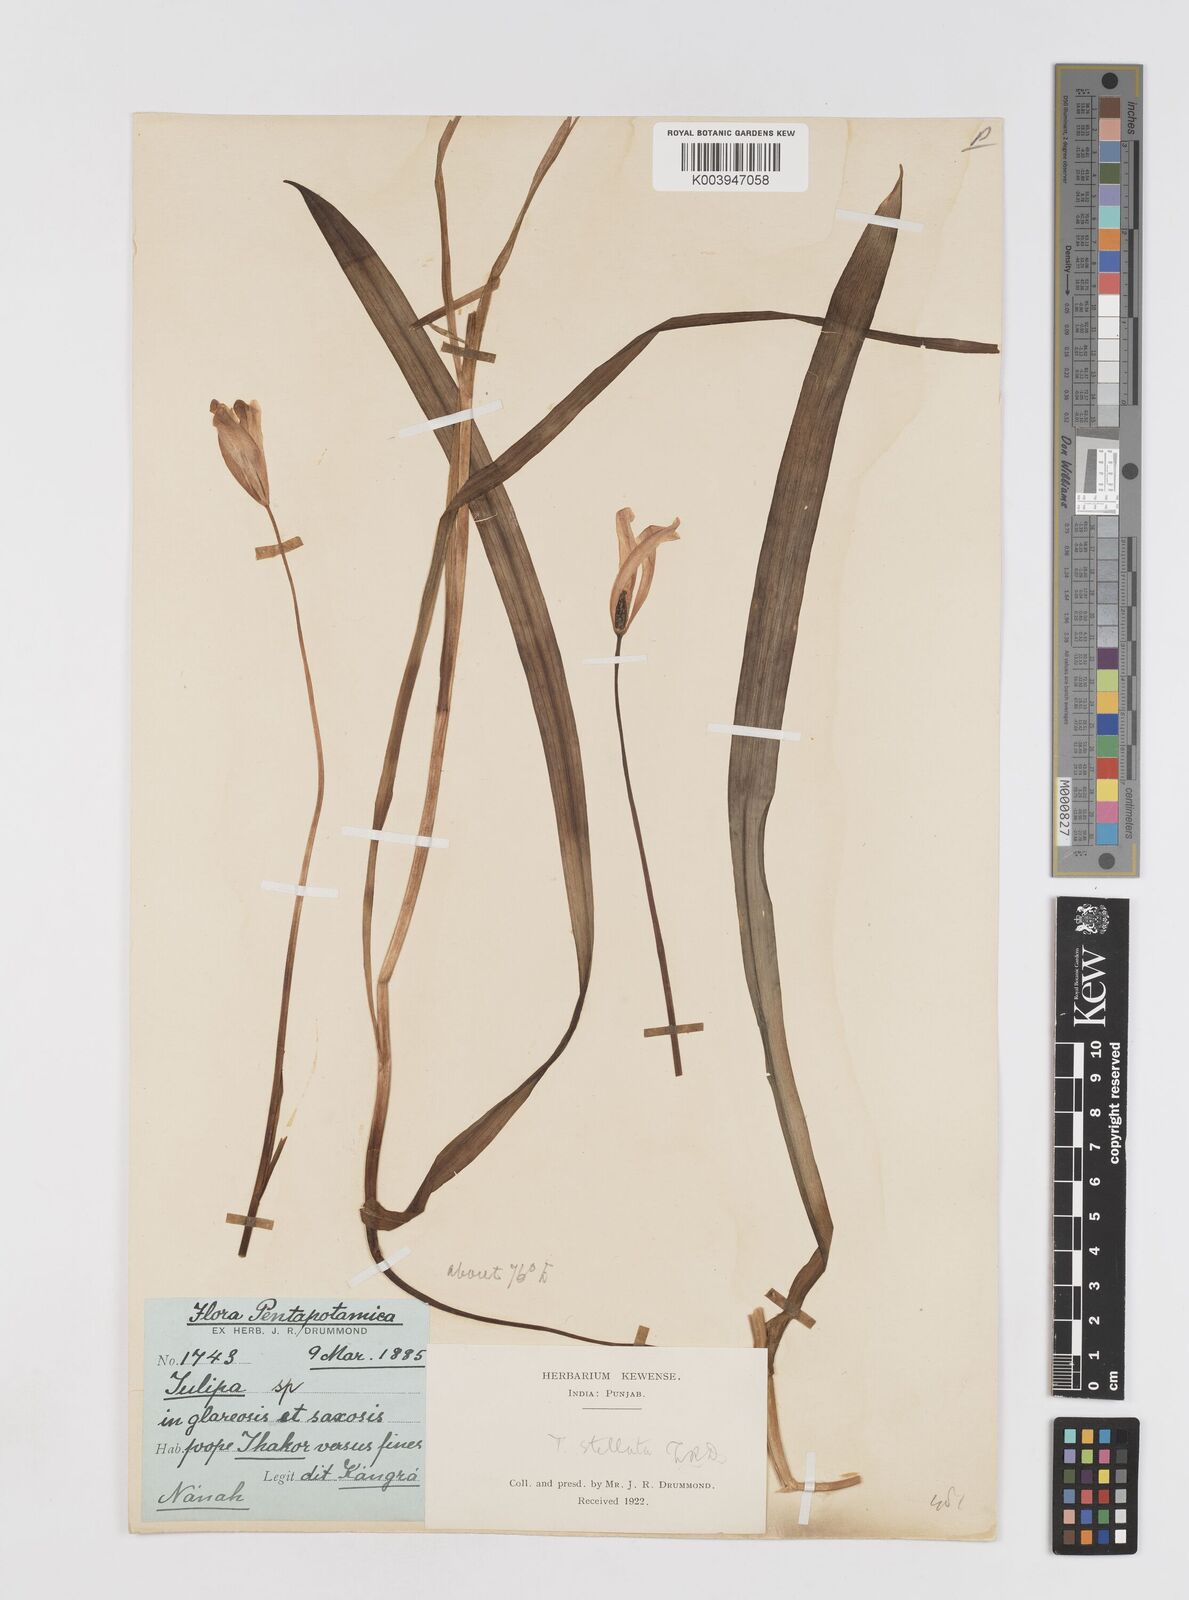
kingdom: Plantae
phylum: Tracheophyta
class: Liliopsida
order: Liliales
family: Liliaceae
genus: Tulipa
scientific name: Tulipa clusiana
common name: Lady tulip
